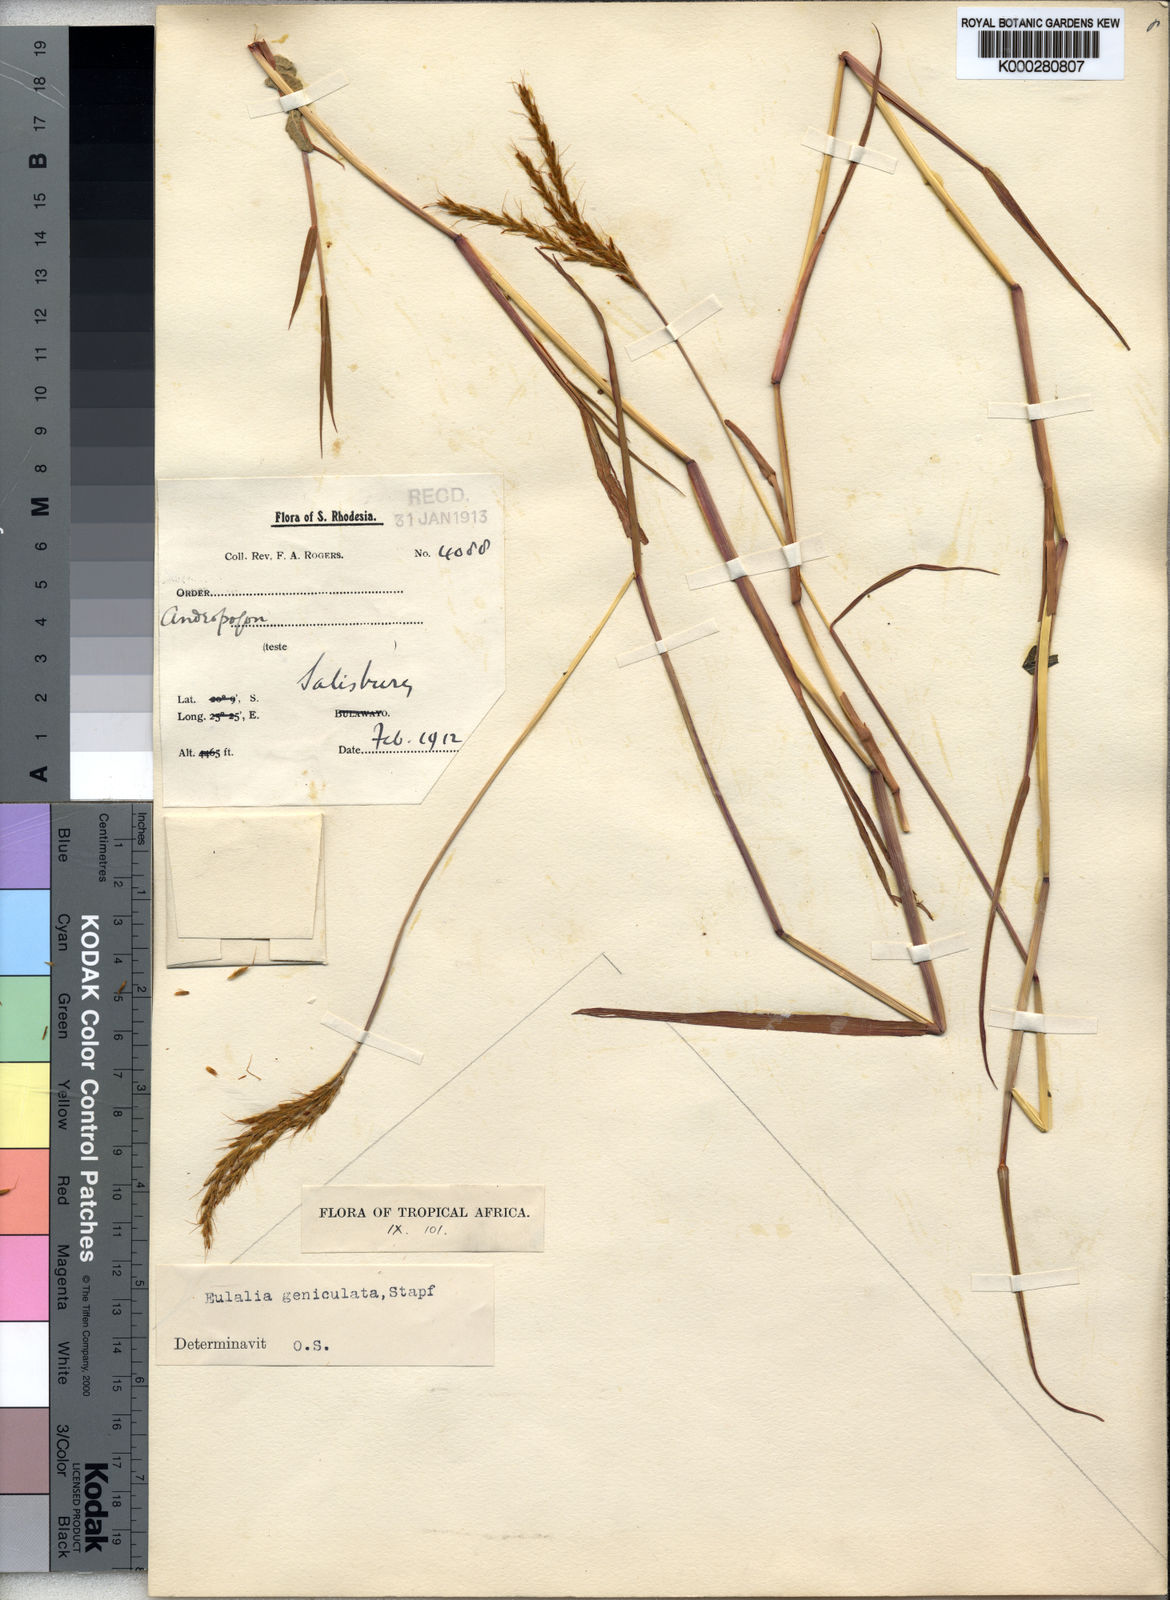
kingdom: Plantae
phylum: Tracheophyta
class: Liliopsida
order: Poales
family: Poaceae
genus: Eulalia
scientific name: Eulalia aurea
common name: Silky browntop
